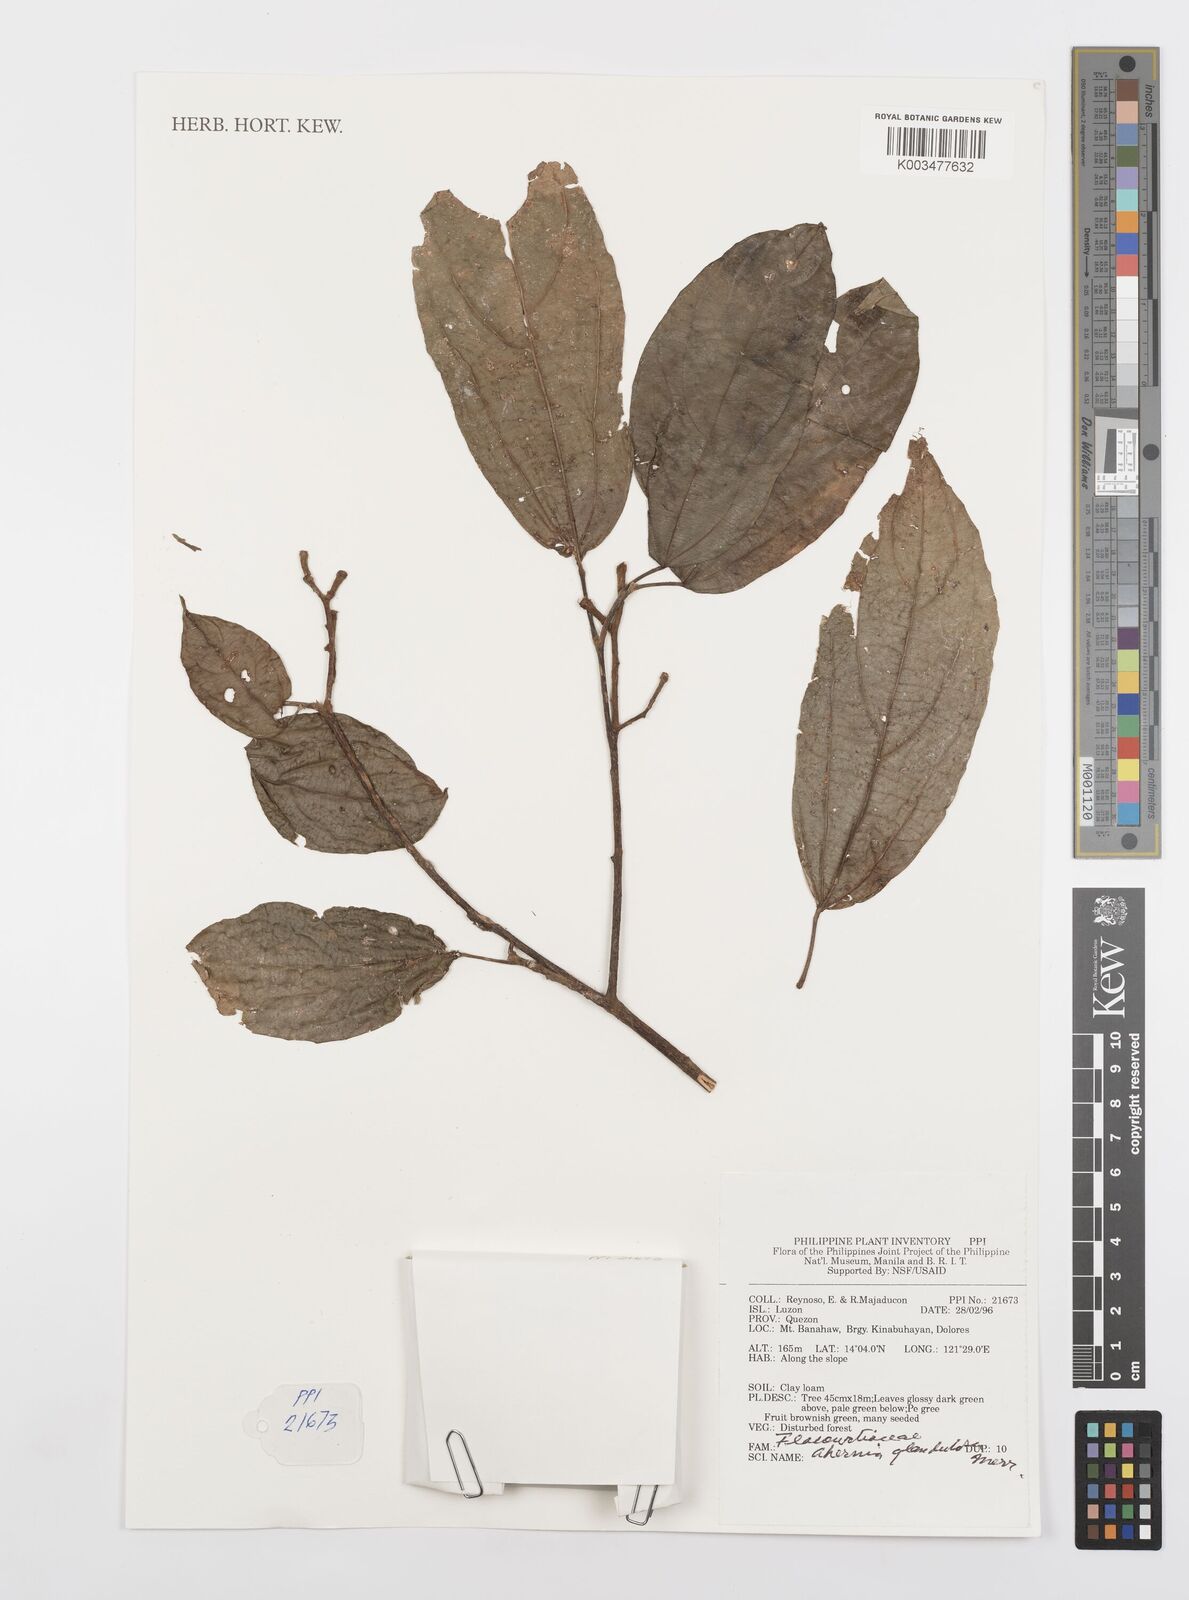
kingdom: Plantae
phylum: Tracheophyta
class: Magnoliopsida
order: Malpighiales
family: Achariaceae
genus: Ahernia
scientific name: Ahernia glandulosa
